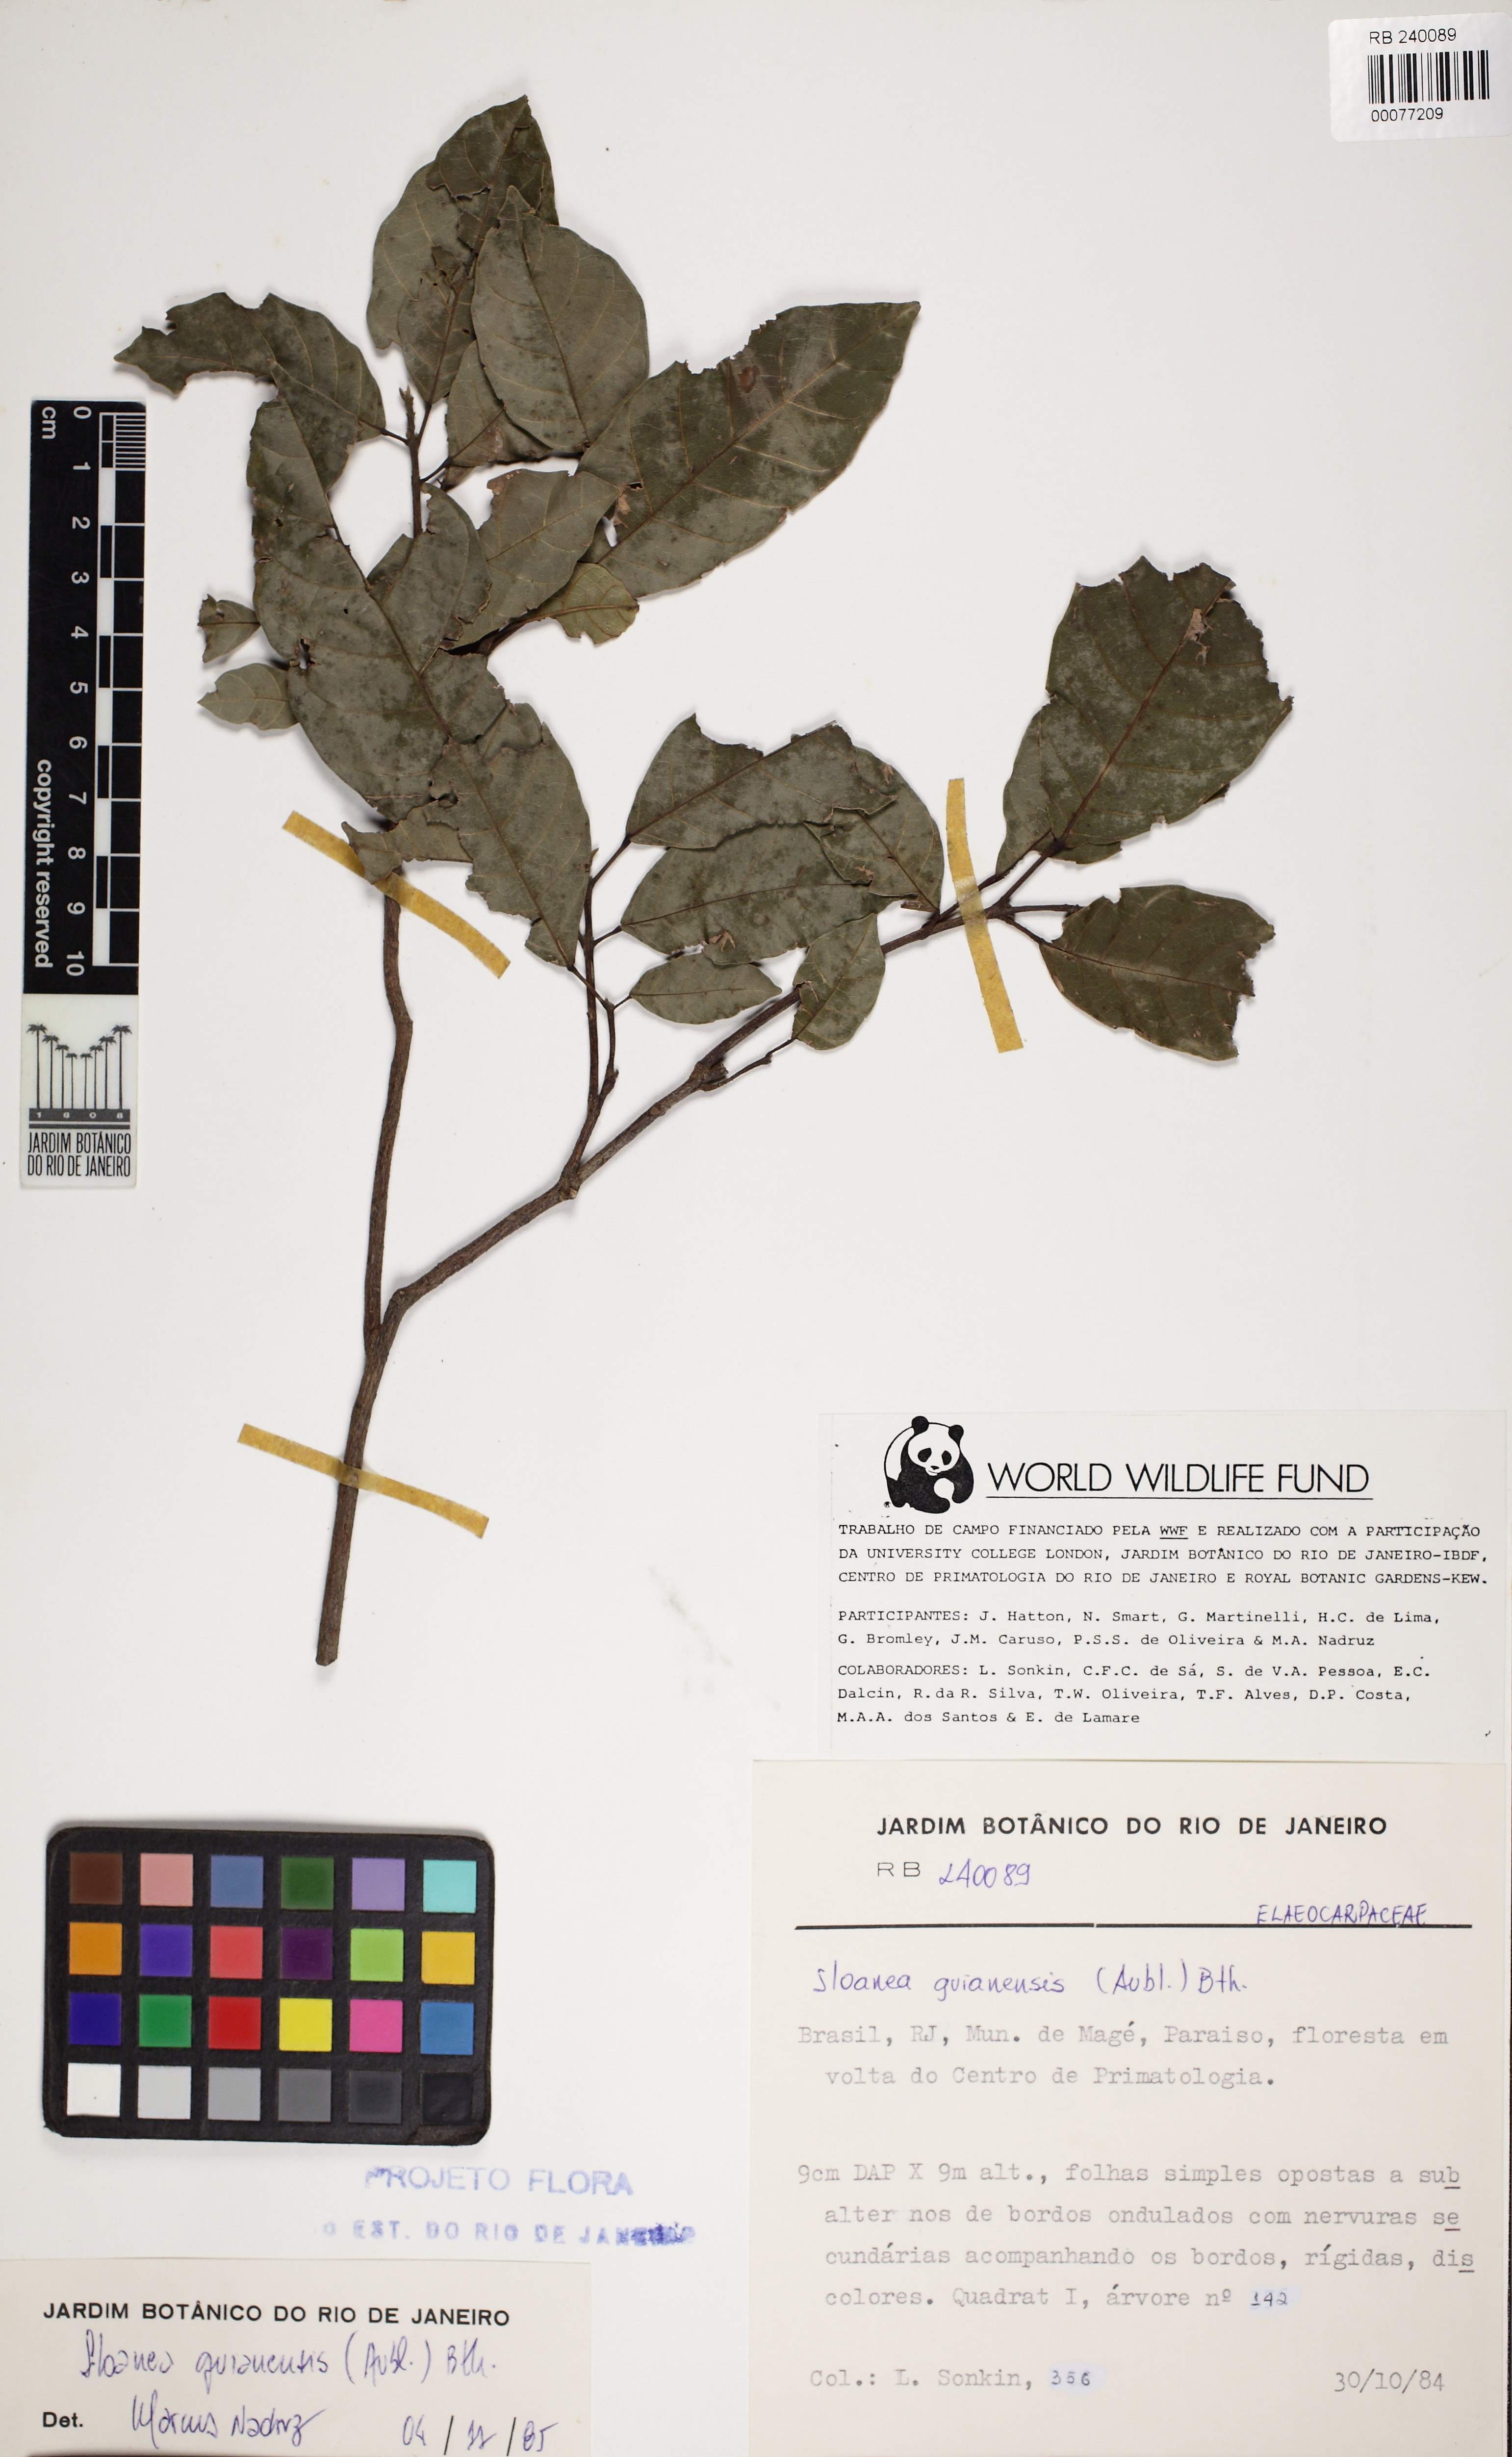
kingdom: Plantae
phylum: Tracheophyta
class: Magnoliopsida
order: Oxalidales
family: Elaeocarpaceae
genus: Sloanea
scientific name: Sloanea guianensis
